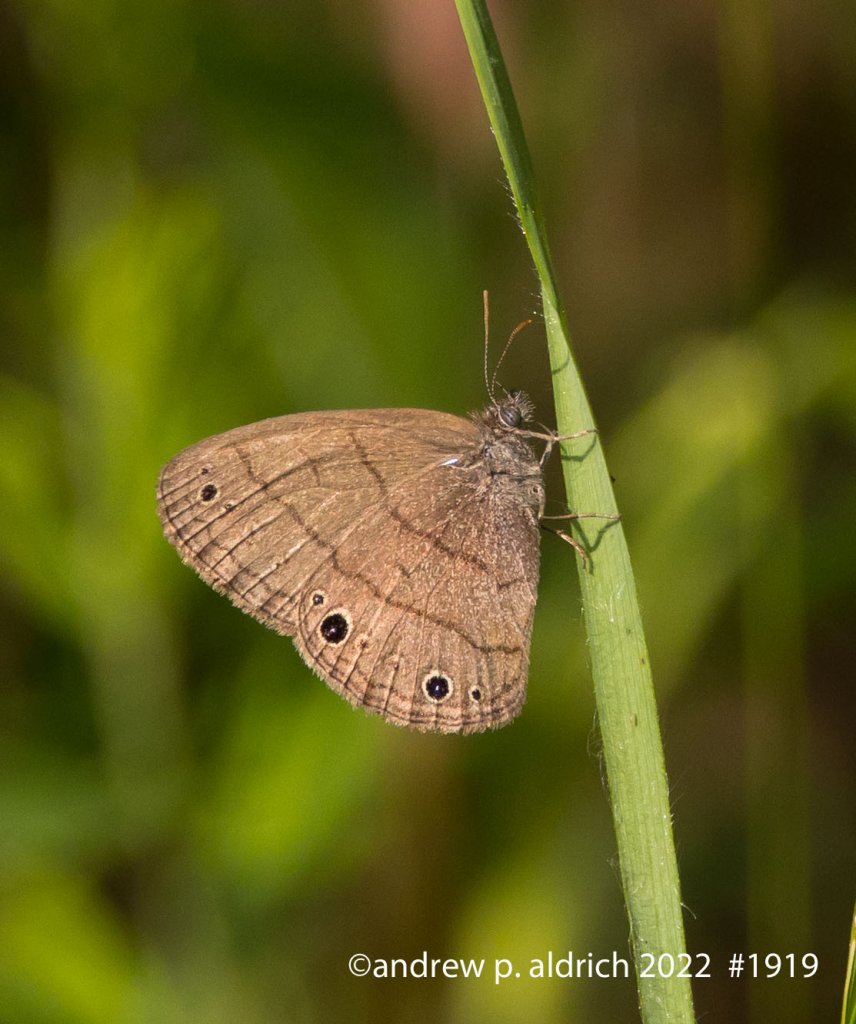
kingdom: Animalia
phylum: Arthropoda
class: Insecta
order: Lepidoptera
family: Nymphalidae
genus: Hermeuptychia
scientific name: Hermeuptychia hermes
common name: Carolina Satyr
